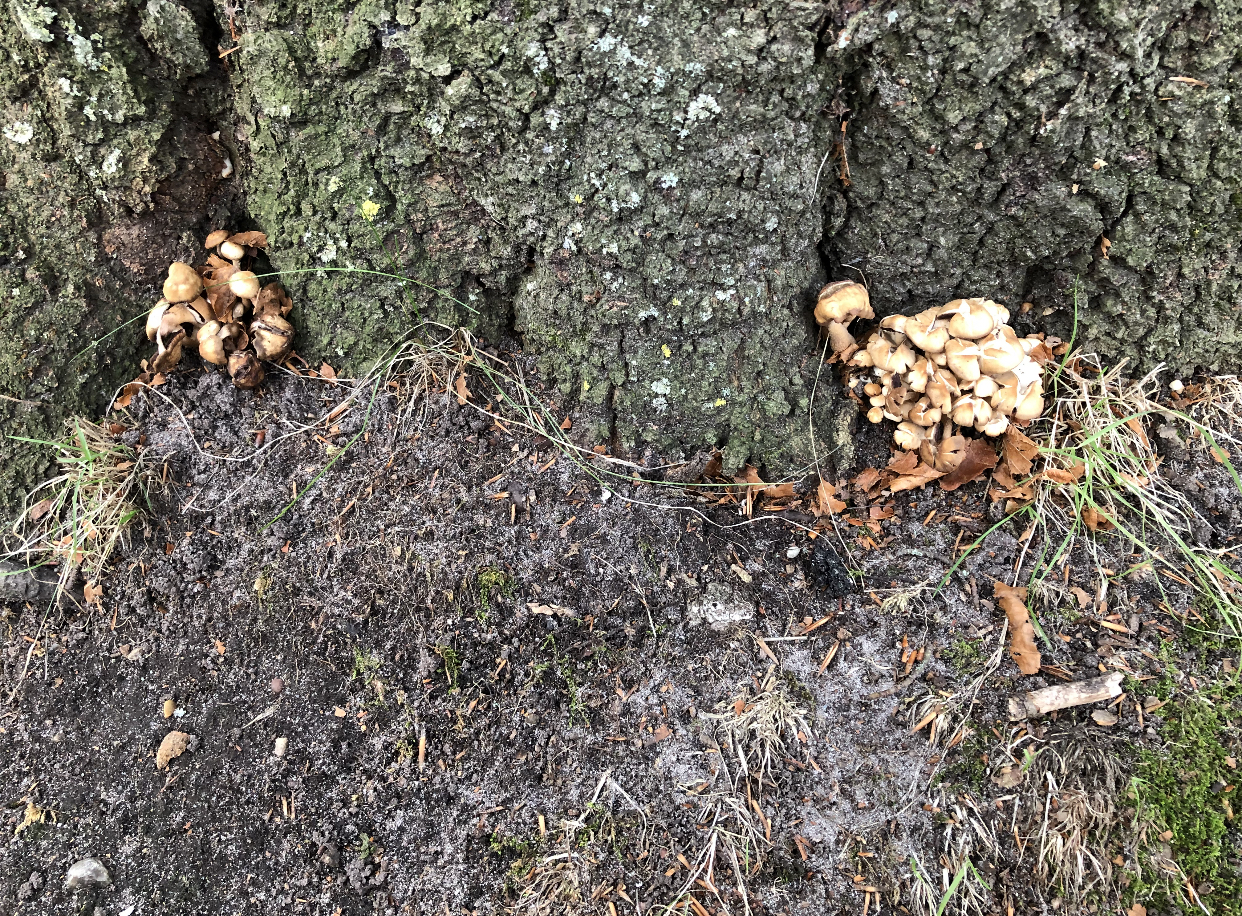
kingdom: Fungi
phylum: Basidiomycota
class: Agaricomycetes
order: Agaricales
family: Psathyrellaceae
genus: Homophron
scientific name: Homophron spadiceum
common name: daddelbrun mørkhat
